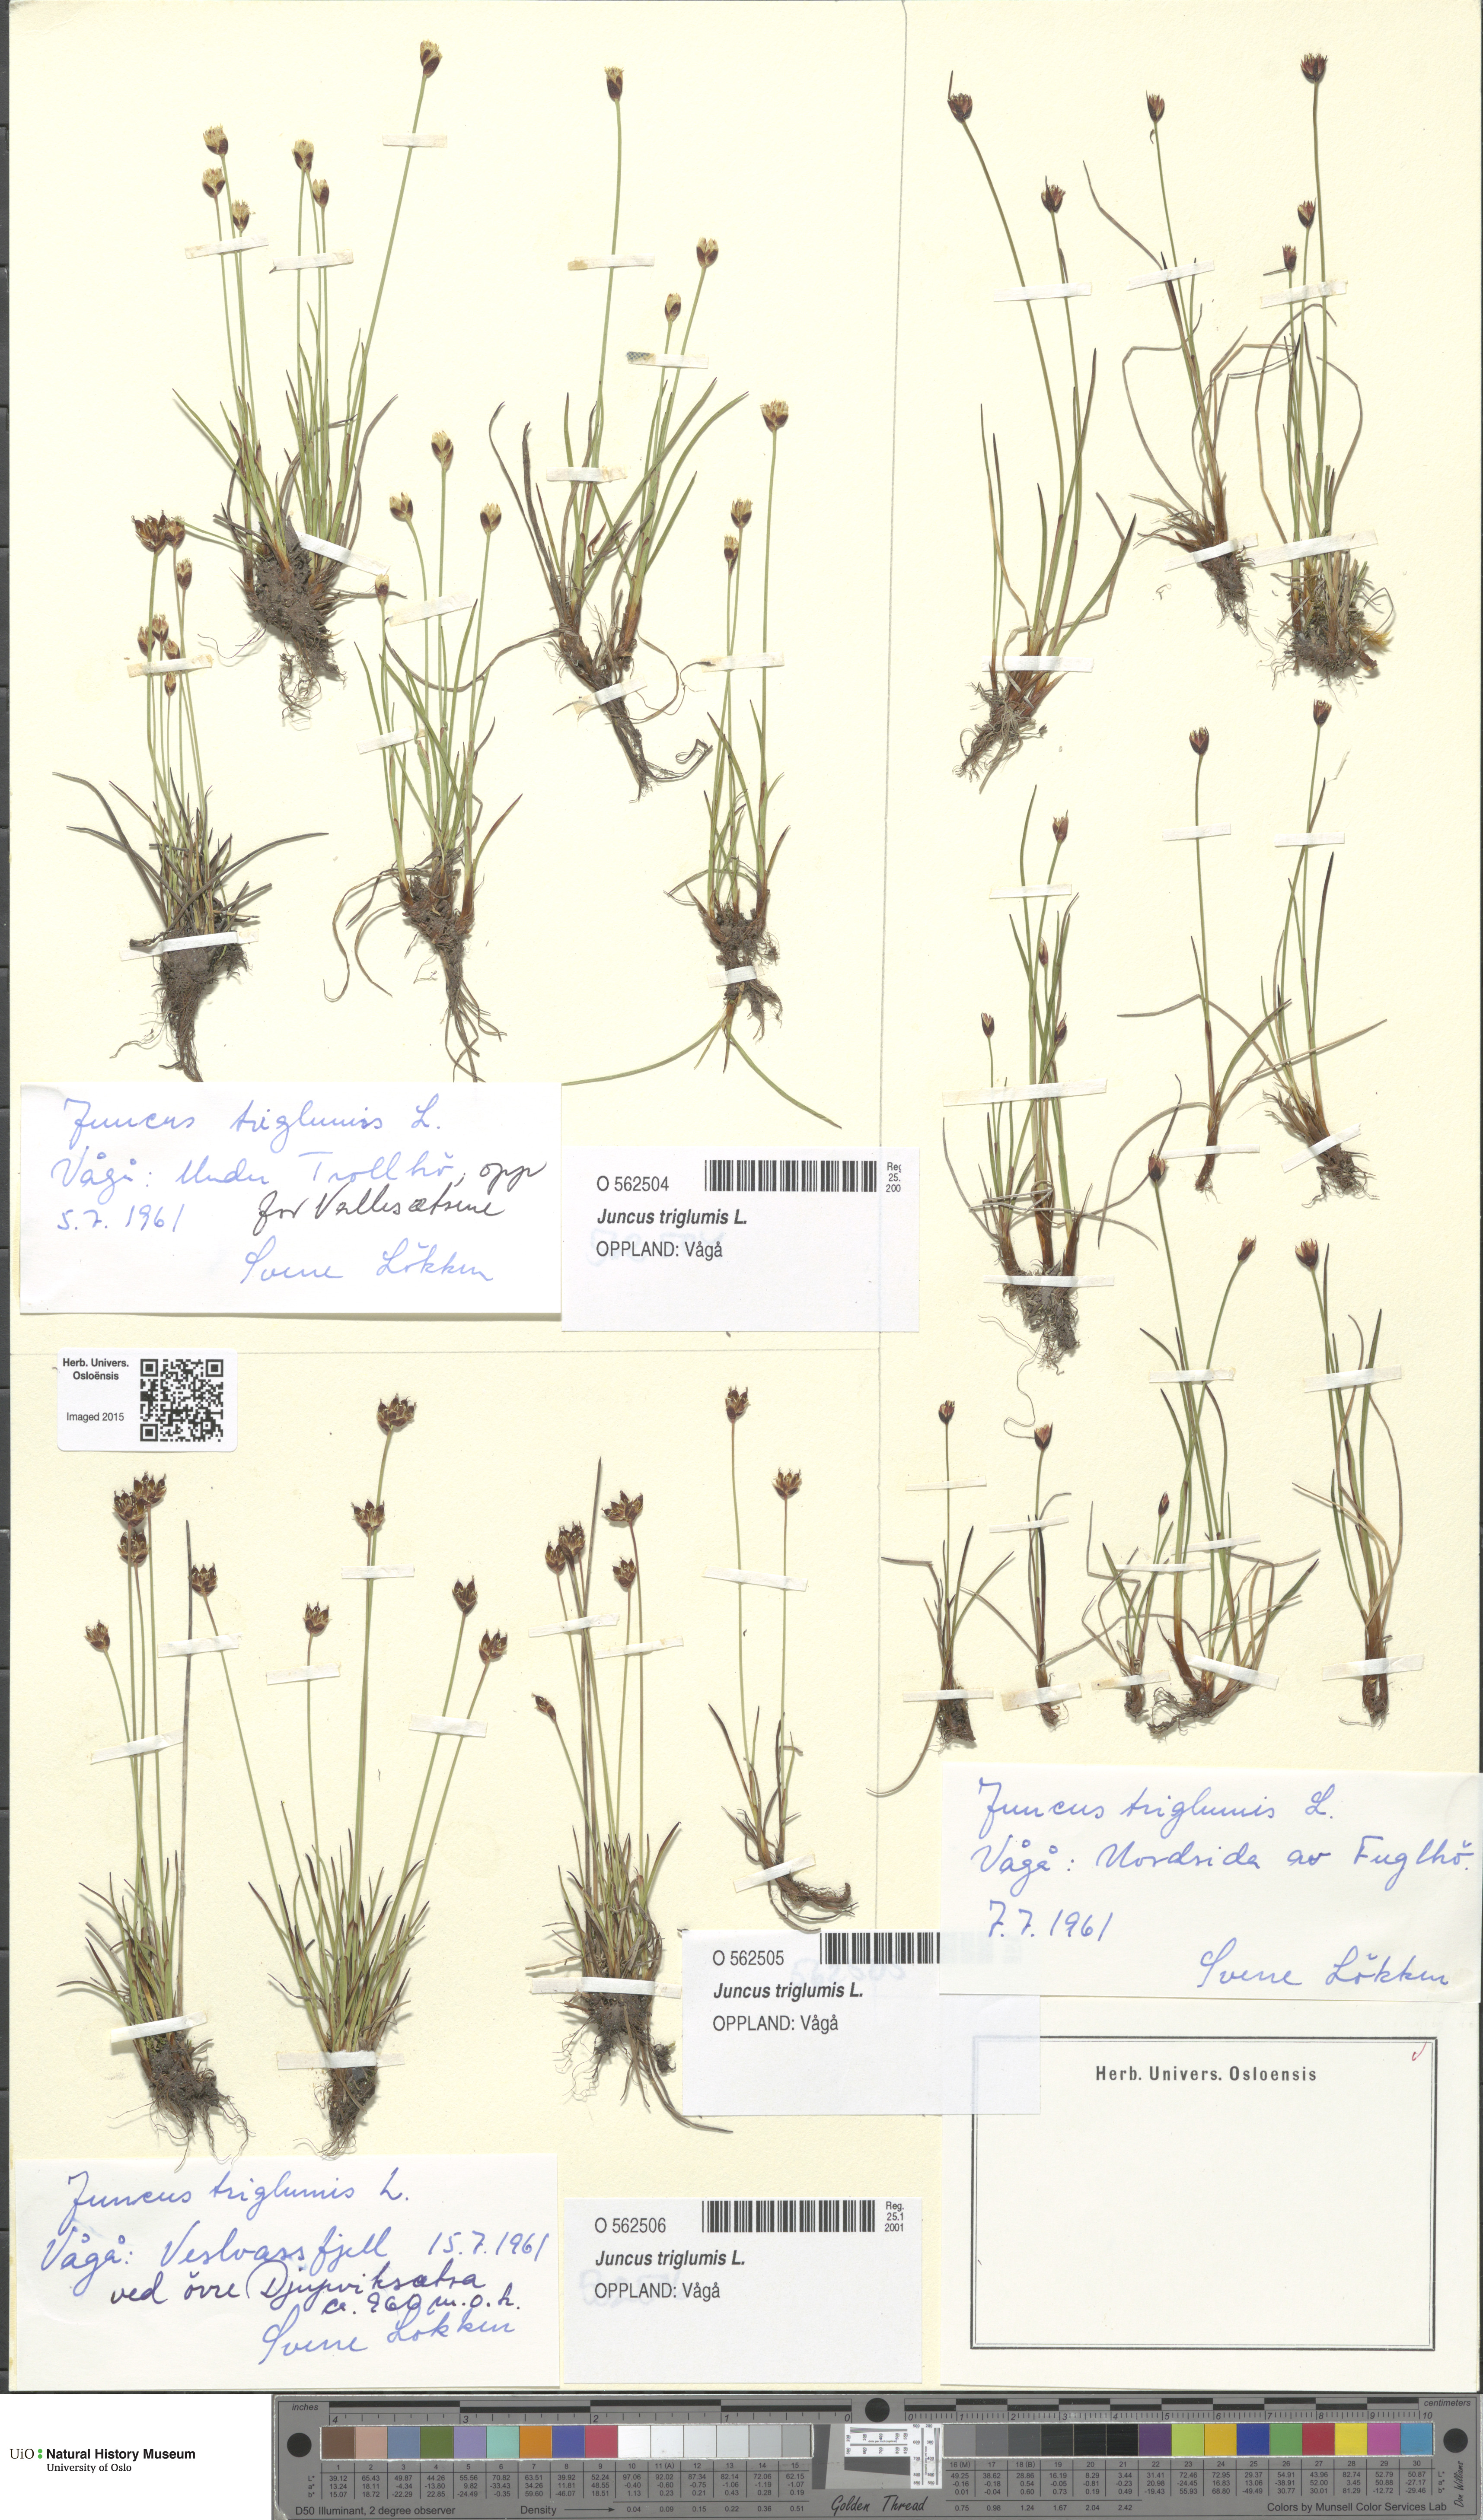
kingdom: Plantae
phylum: Tracheophyta
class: Liliopsida
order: Poales
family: Juncaceae
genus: Juncus
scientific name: Juncus triglumis
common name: Three-flowered rush
